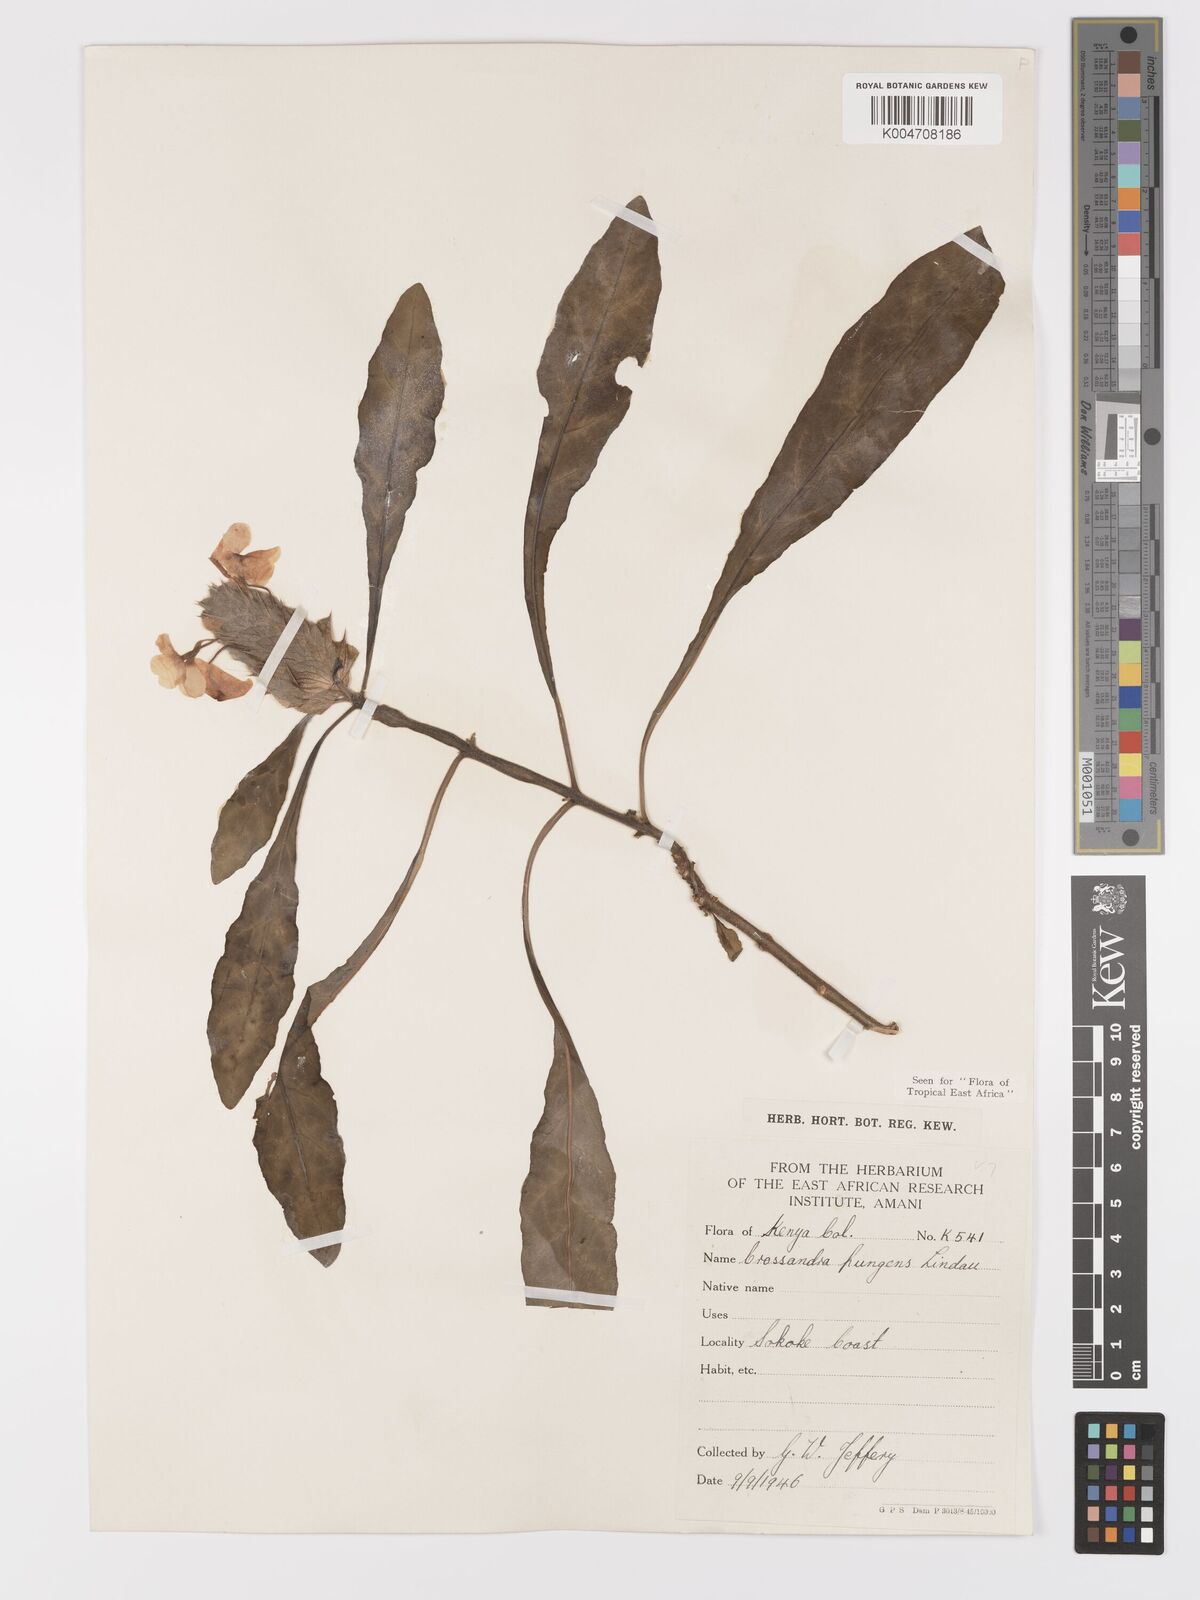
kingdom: Plantae
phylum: Tracheophyta
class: Magnoliopsida
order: Lamiales
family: Acanthaceae
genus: Crossandra
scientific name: Crossandra pungens
